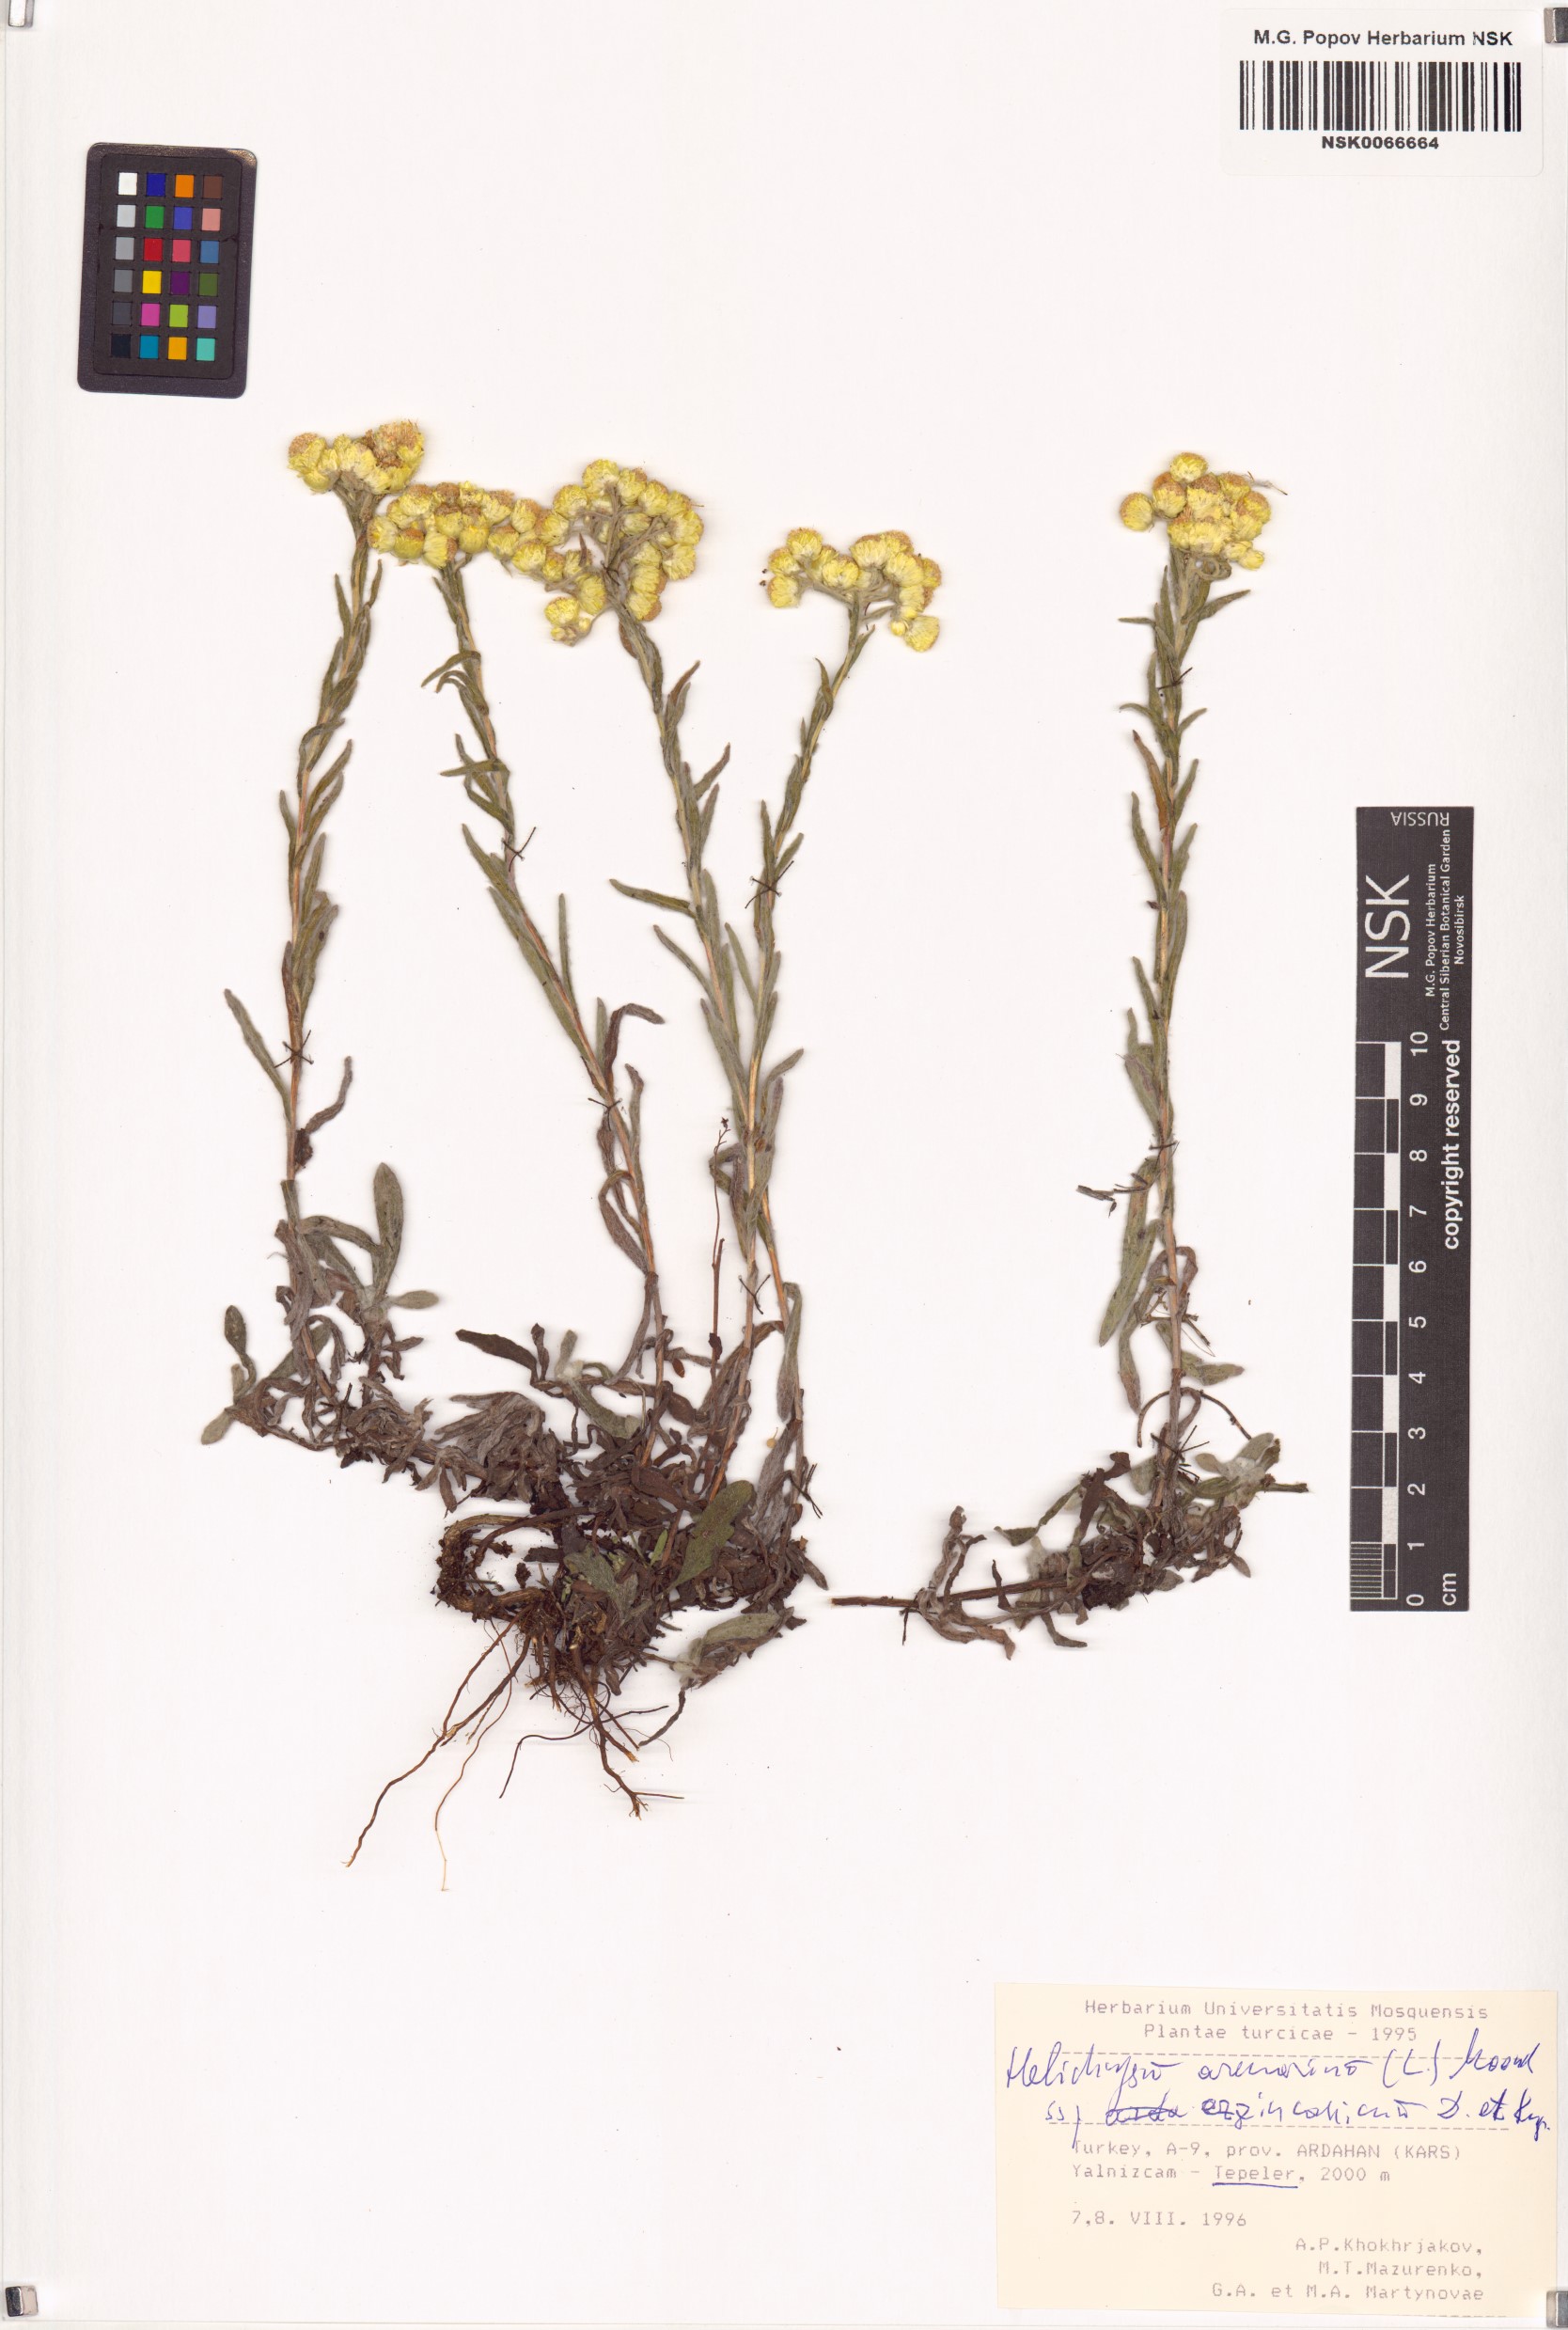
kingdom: Plantae
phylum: Tracheophyta
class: Magnoliopsida
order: Asterales
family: Asteraceae
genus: Helichrysum
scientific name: Helichrysum arenarium
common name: Strawflower
